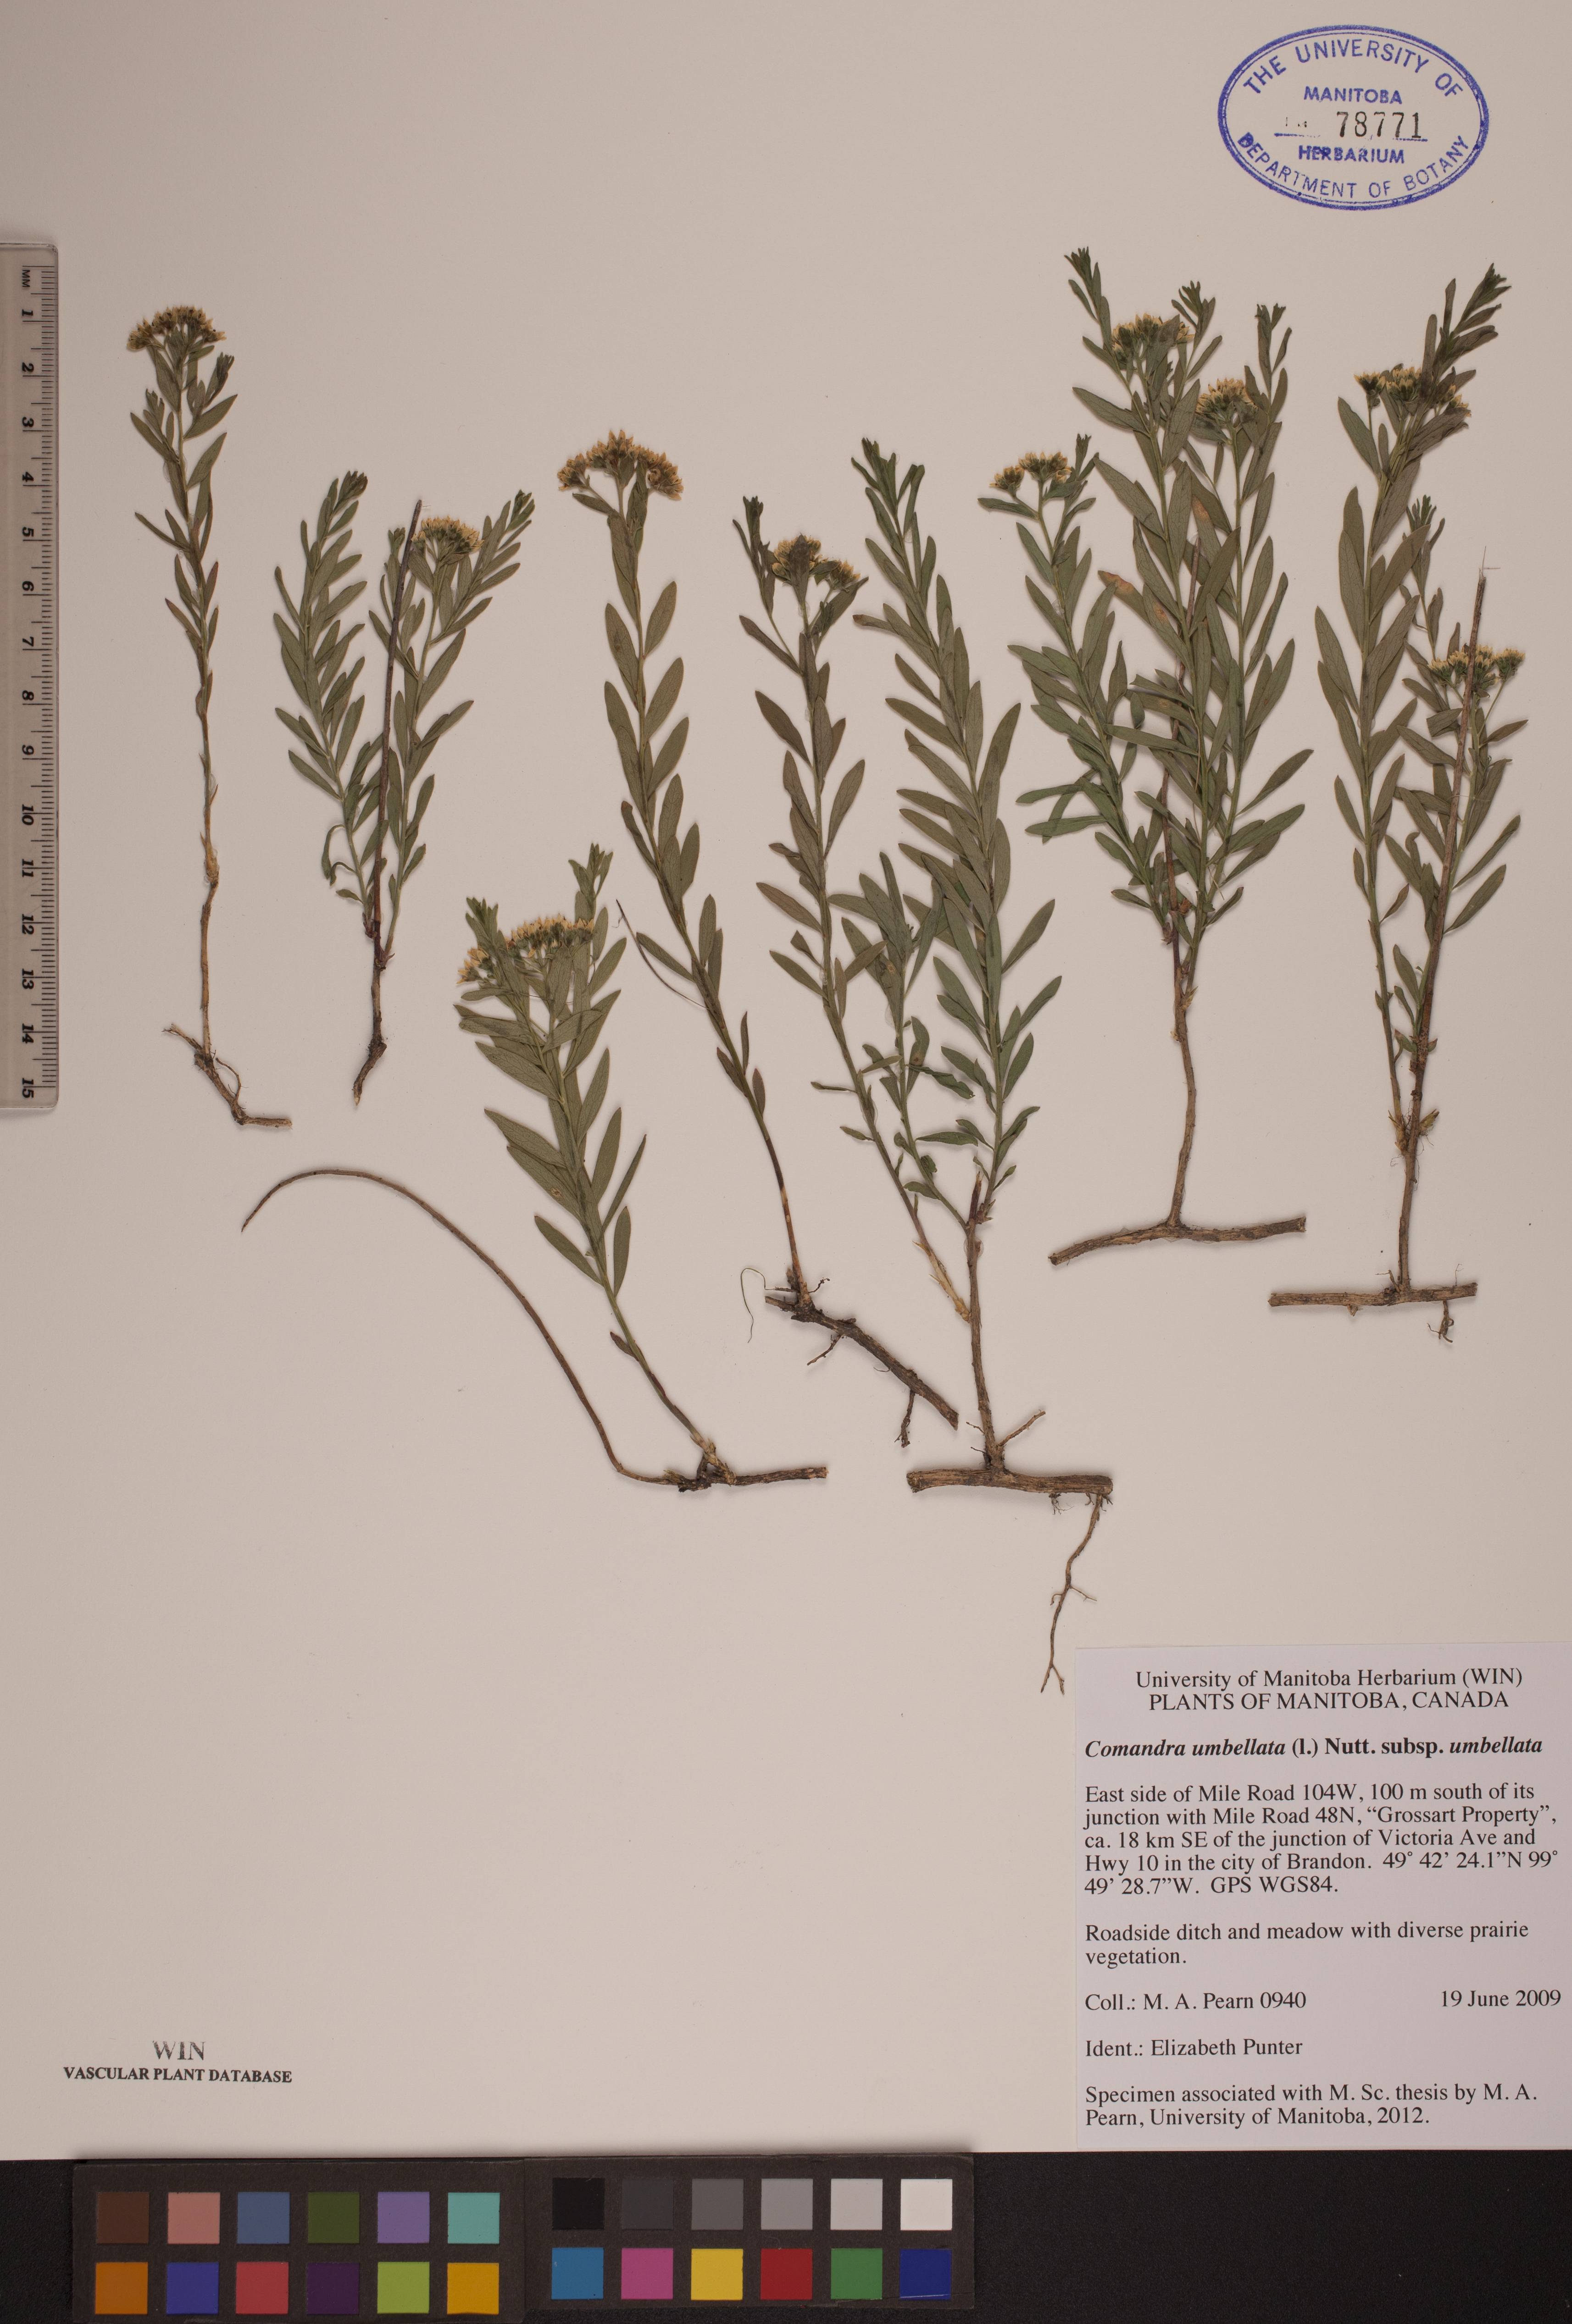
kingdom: Plantae
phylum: Tracheophyta
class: Magnoliopsida
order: Santalales
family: Comandraceae
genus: Comandra
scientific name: Comandra umbellata
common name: Bastard toadflax
